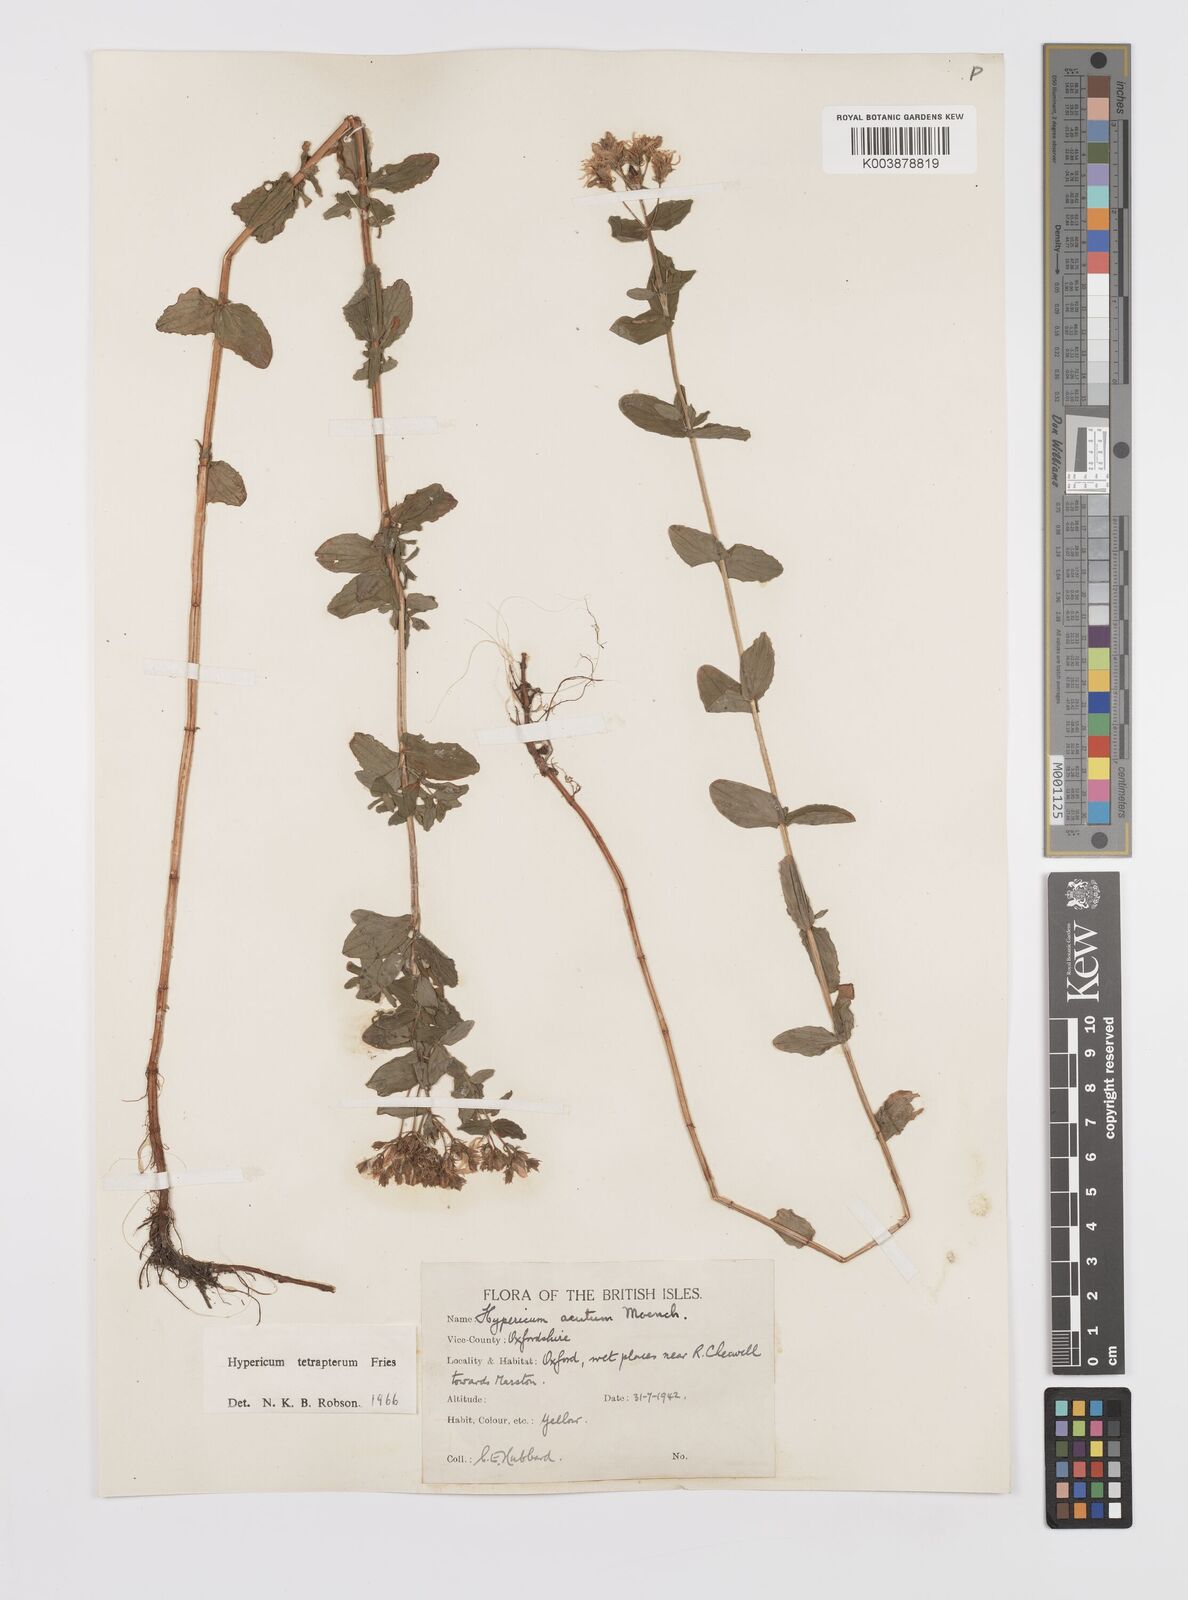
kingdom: Plantae
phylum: Tracheophyta
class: Magnoliopsida
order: Malpighiales
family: Hypericaceae
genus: Hypericum
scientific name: Hypericum tetrapterum
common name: Square-stalked st. john's-wort
